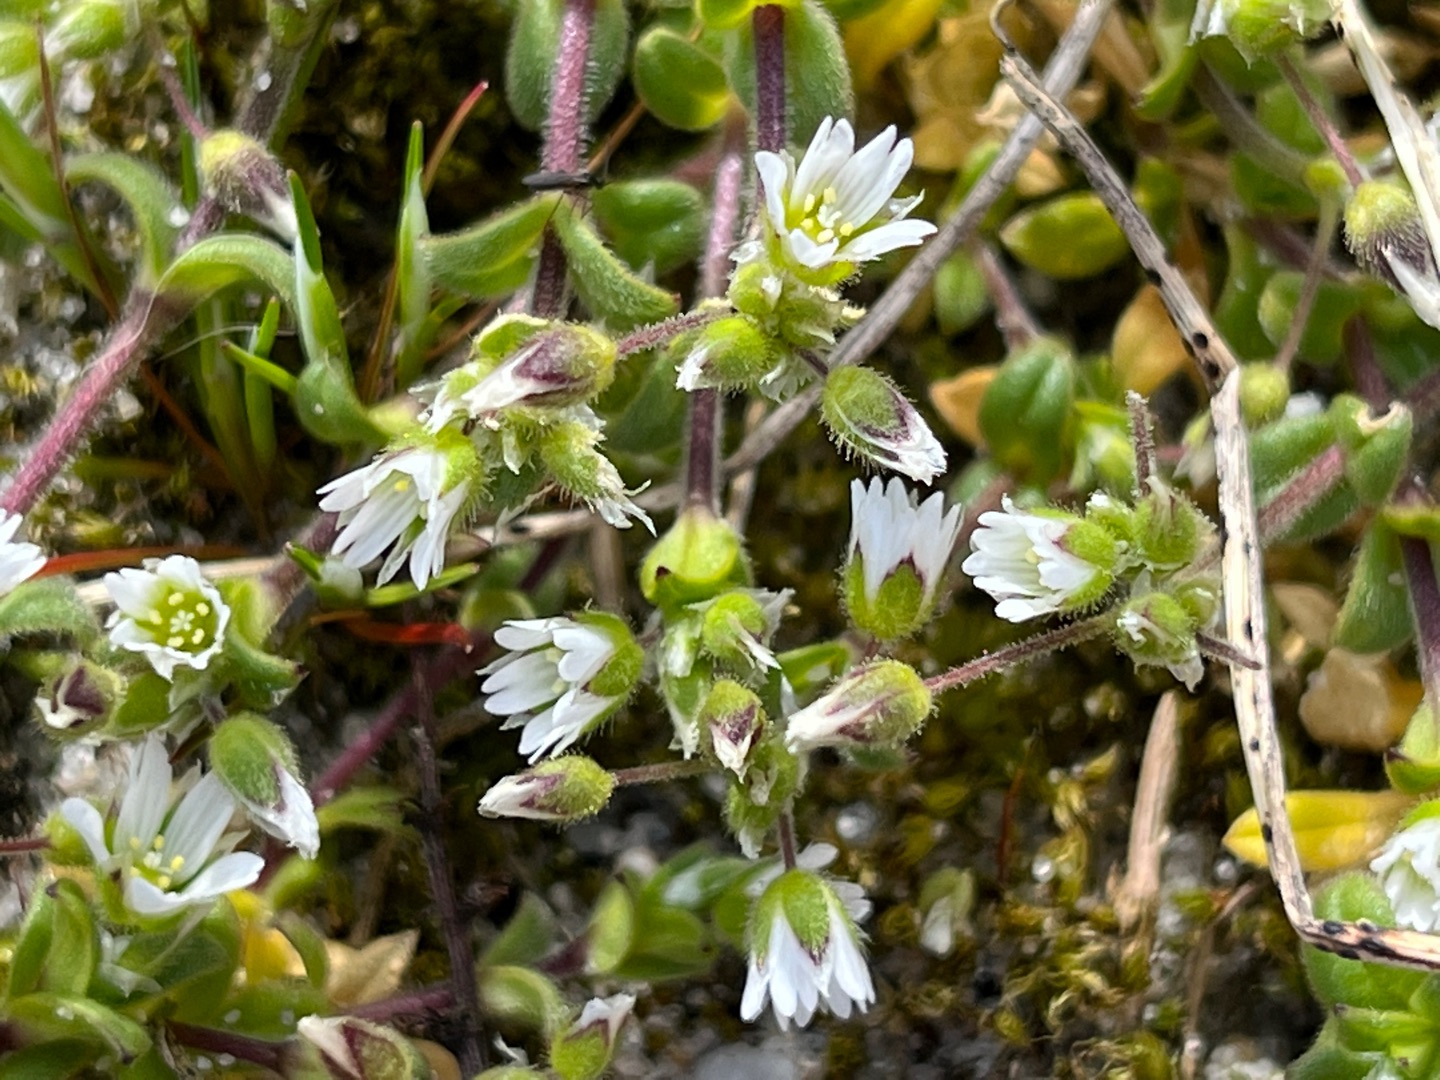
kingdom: Plantae
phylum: Tracheophyta
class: Magnoliopsida
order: Caryophyllales
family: Caryophyllaceae
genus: Cerastium
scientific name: Cerastium semidecandrum
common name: Femhannet hønsetarm
